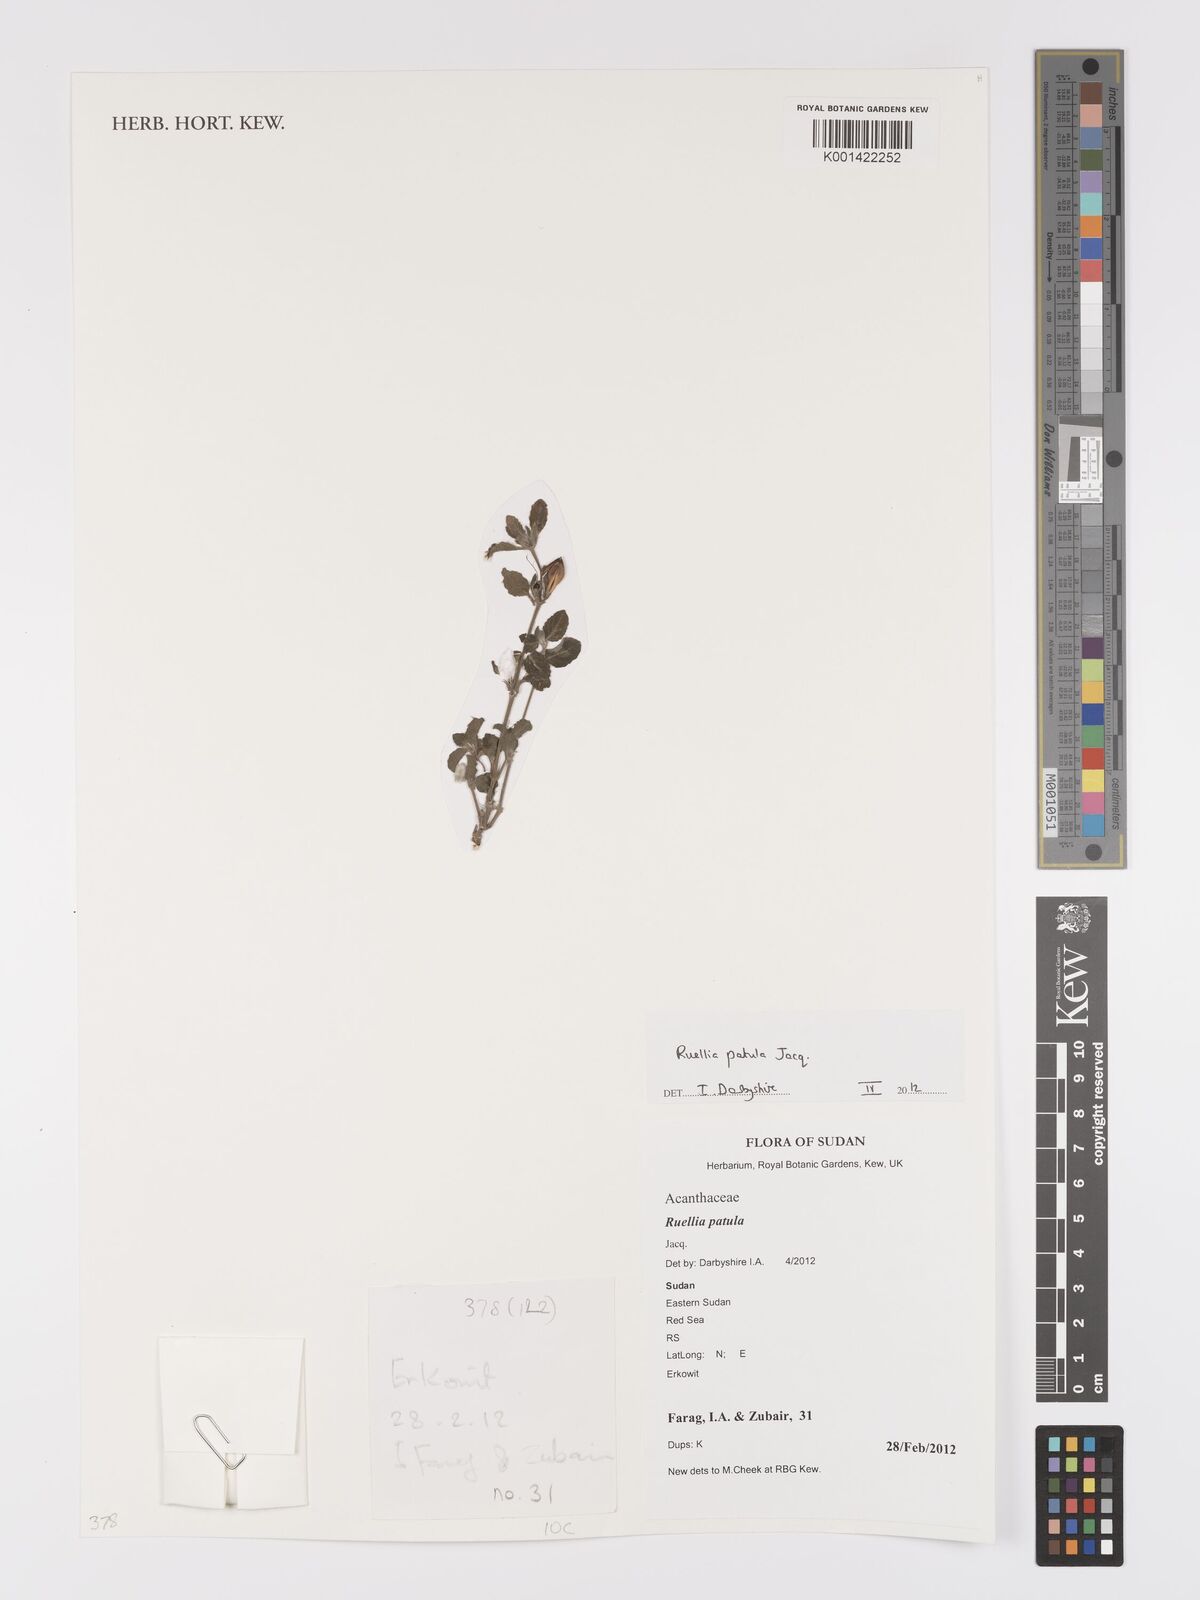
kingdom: Plantae
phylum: Tracheophyta
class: Magnoliopsida
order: Lamiales
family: Acanthaceae
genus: Ruellia
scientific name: Ruellia patula
